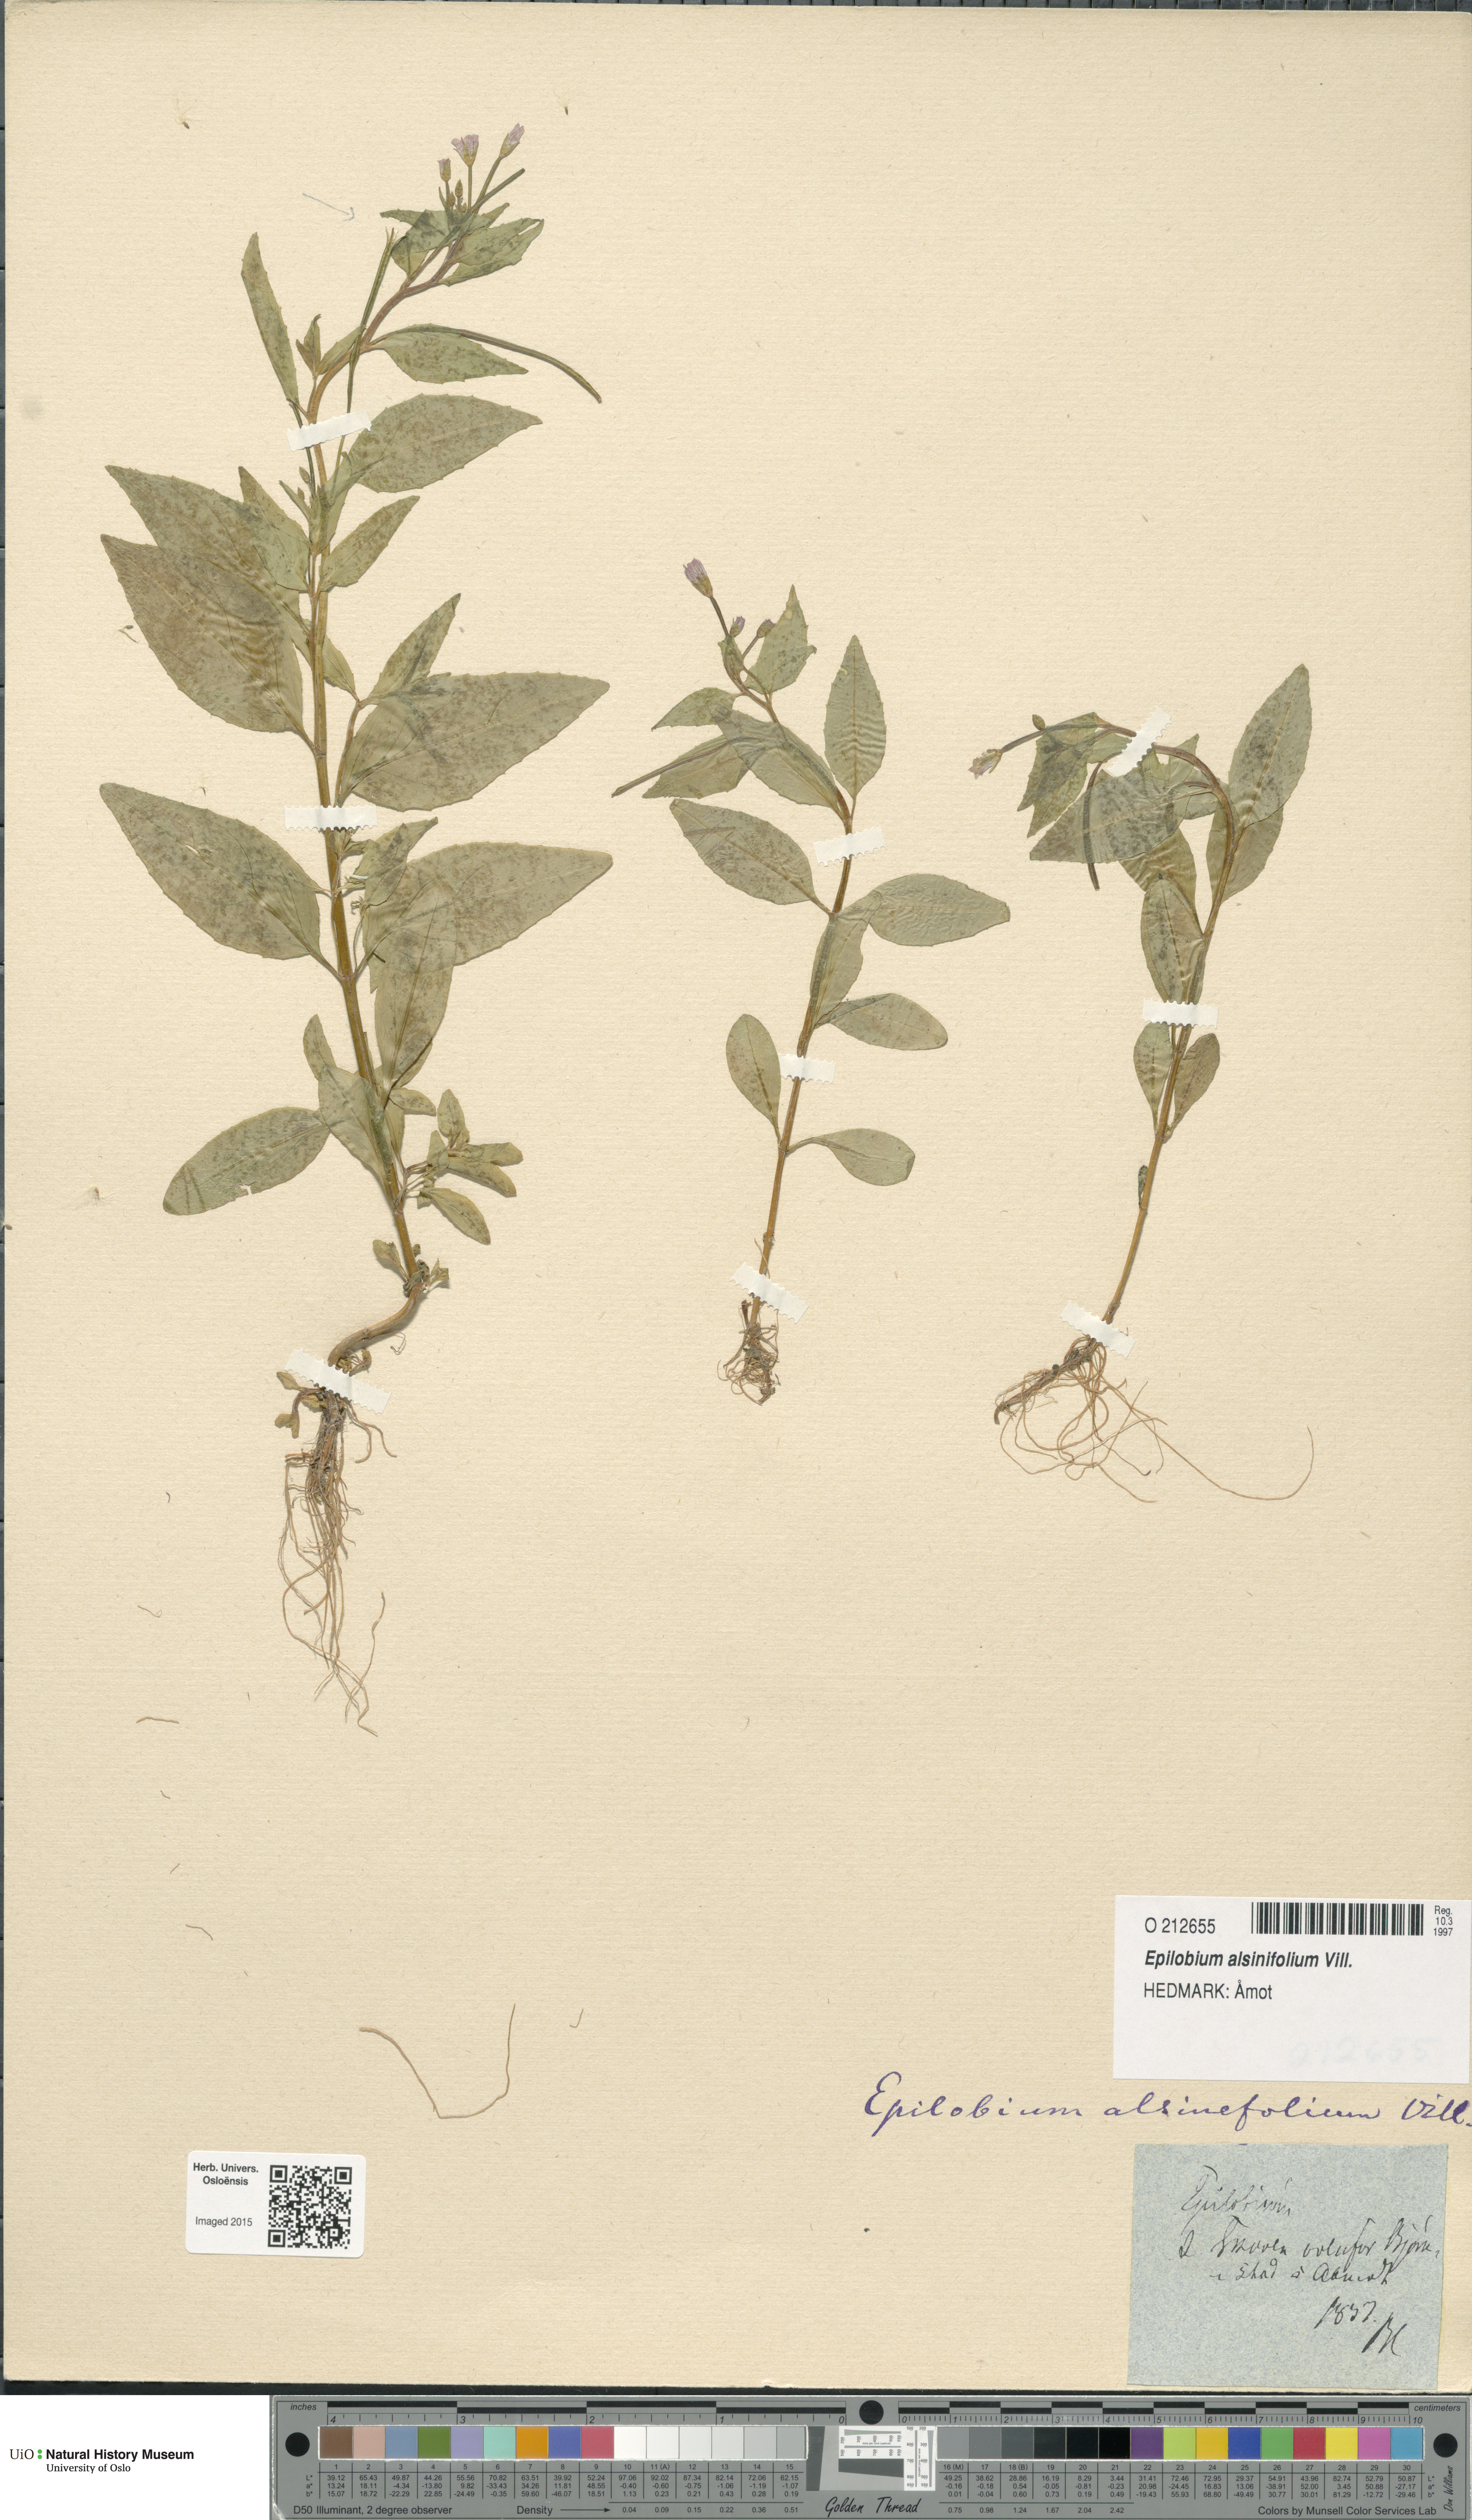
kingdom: Plantae
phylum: Tracheophyta
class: Magnoliopsida
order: Myrtales
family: Onagraceae
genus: Epilobium
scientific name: Epilobium alsinifolium
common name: Chickweed willowherb
